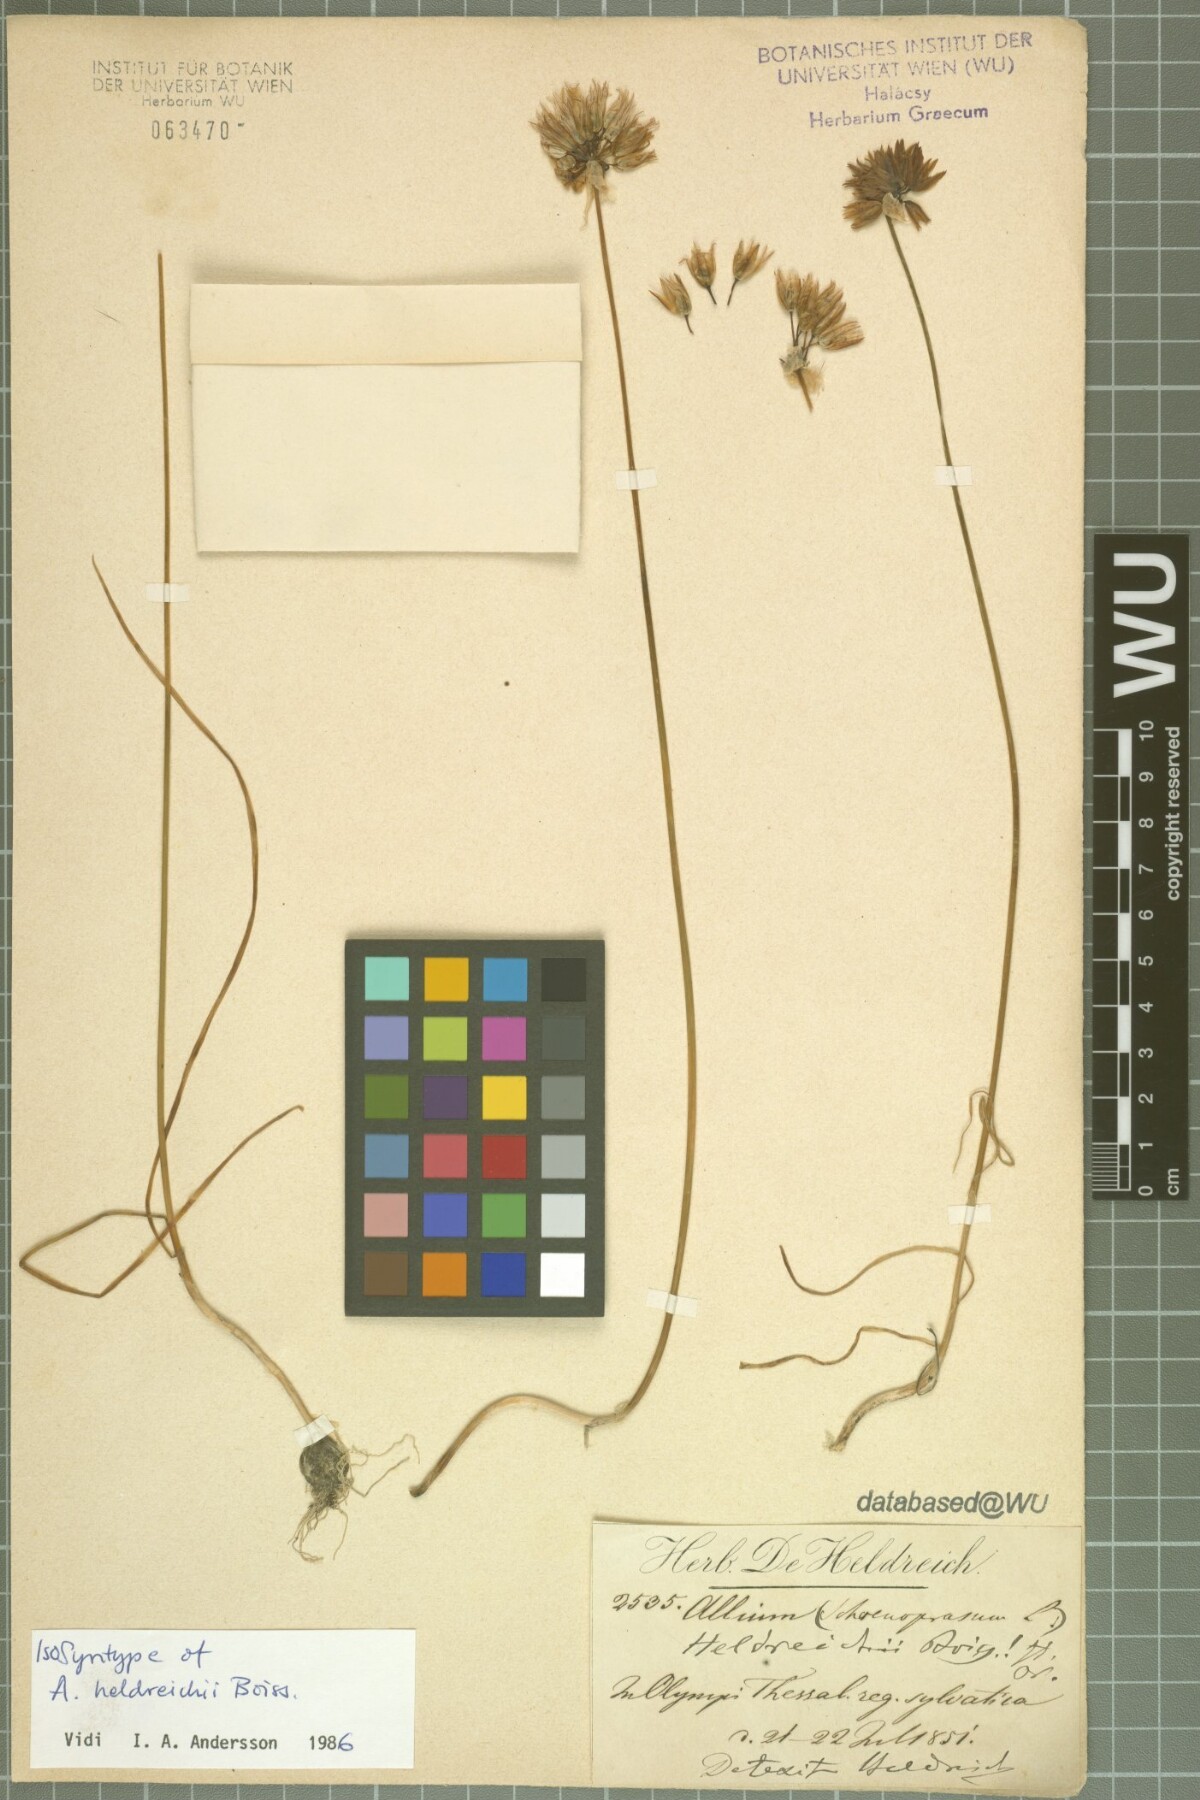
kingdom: Plantae
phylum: Tracheophyta
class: Liliopsida
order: Asparagales
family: Amaryllidaceae
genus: Allium
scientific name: Allium heldreichii
